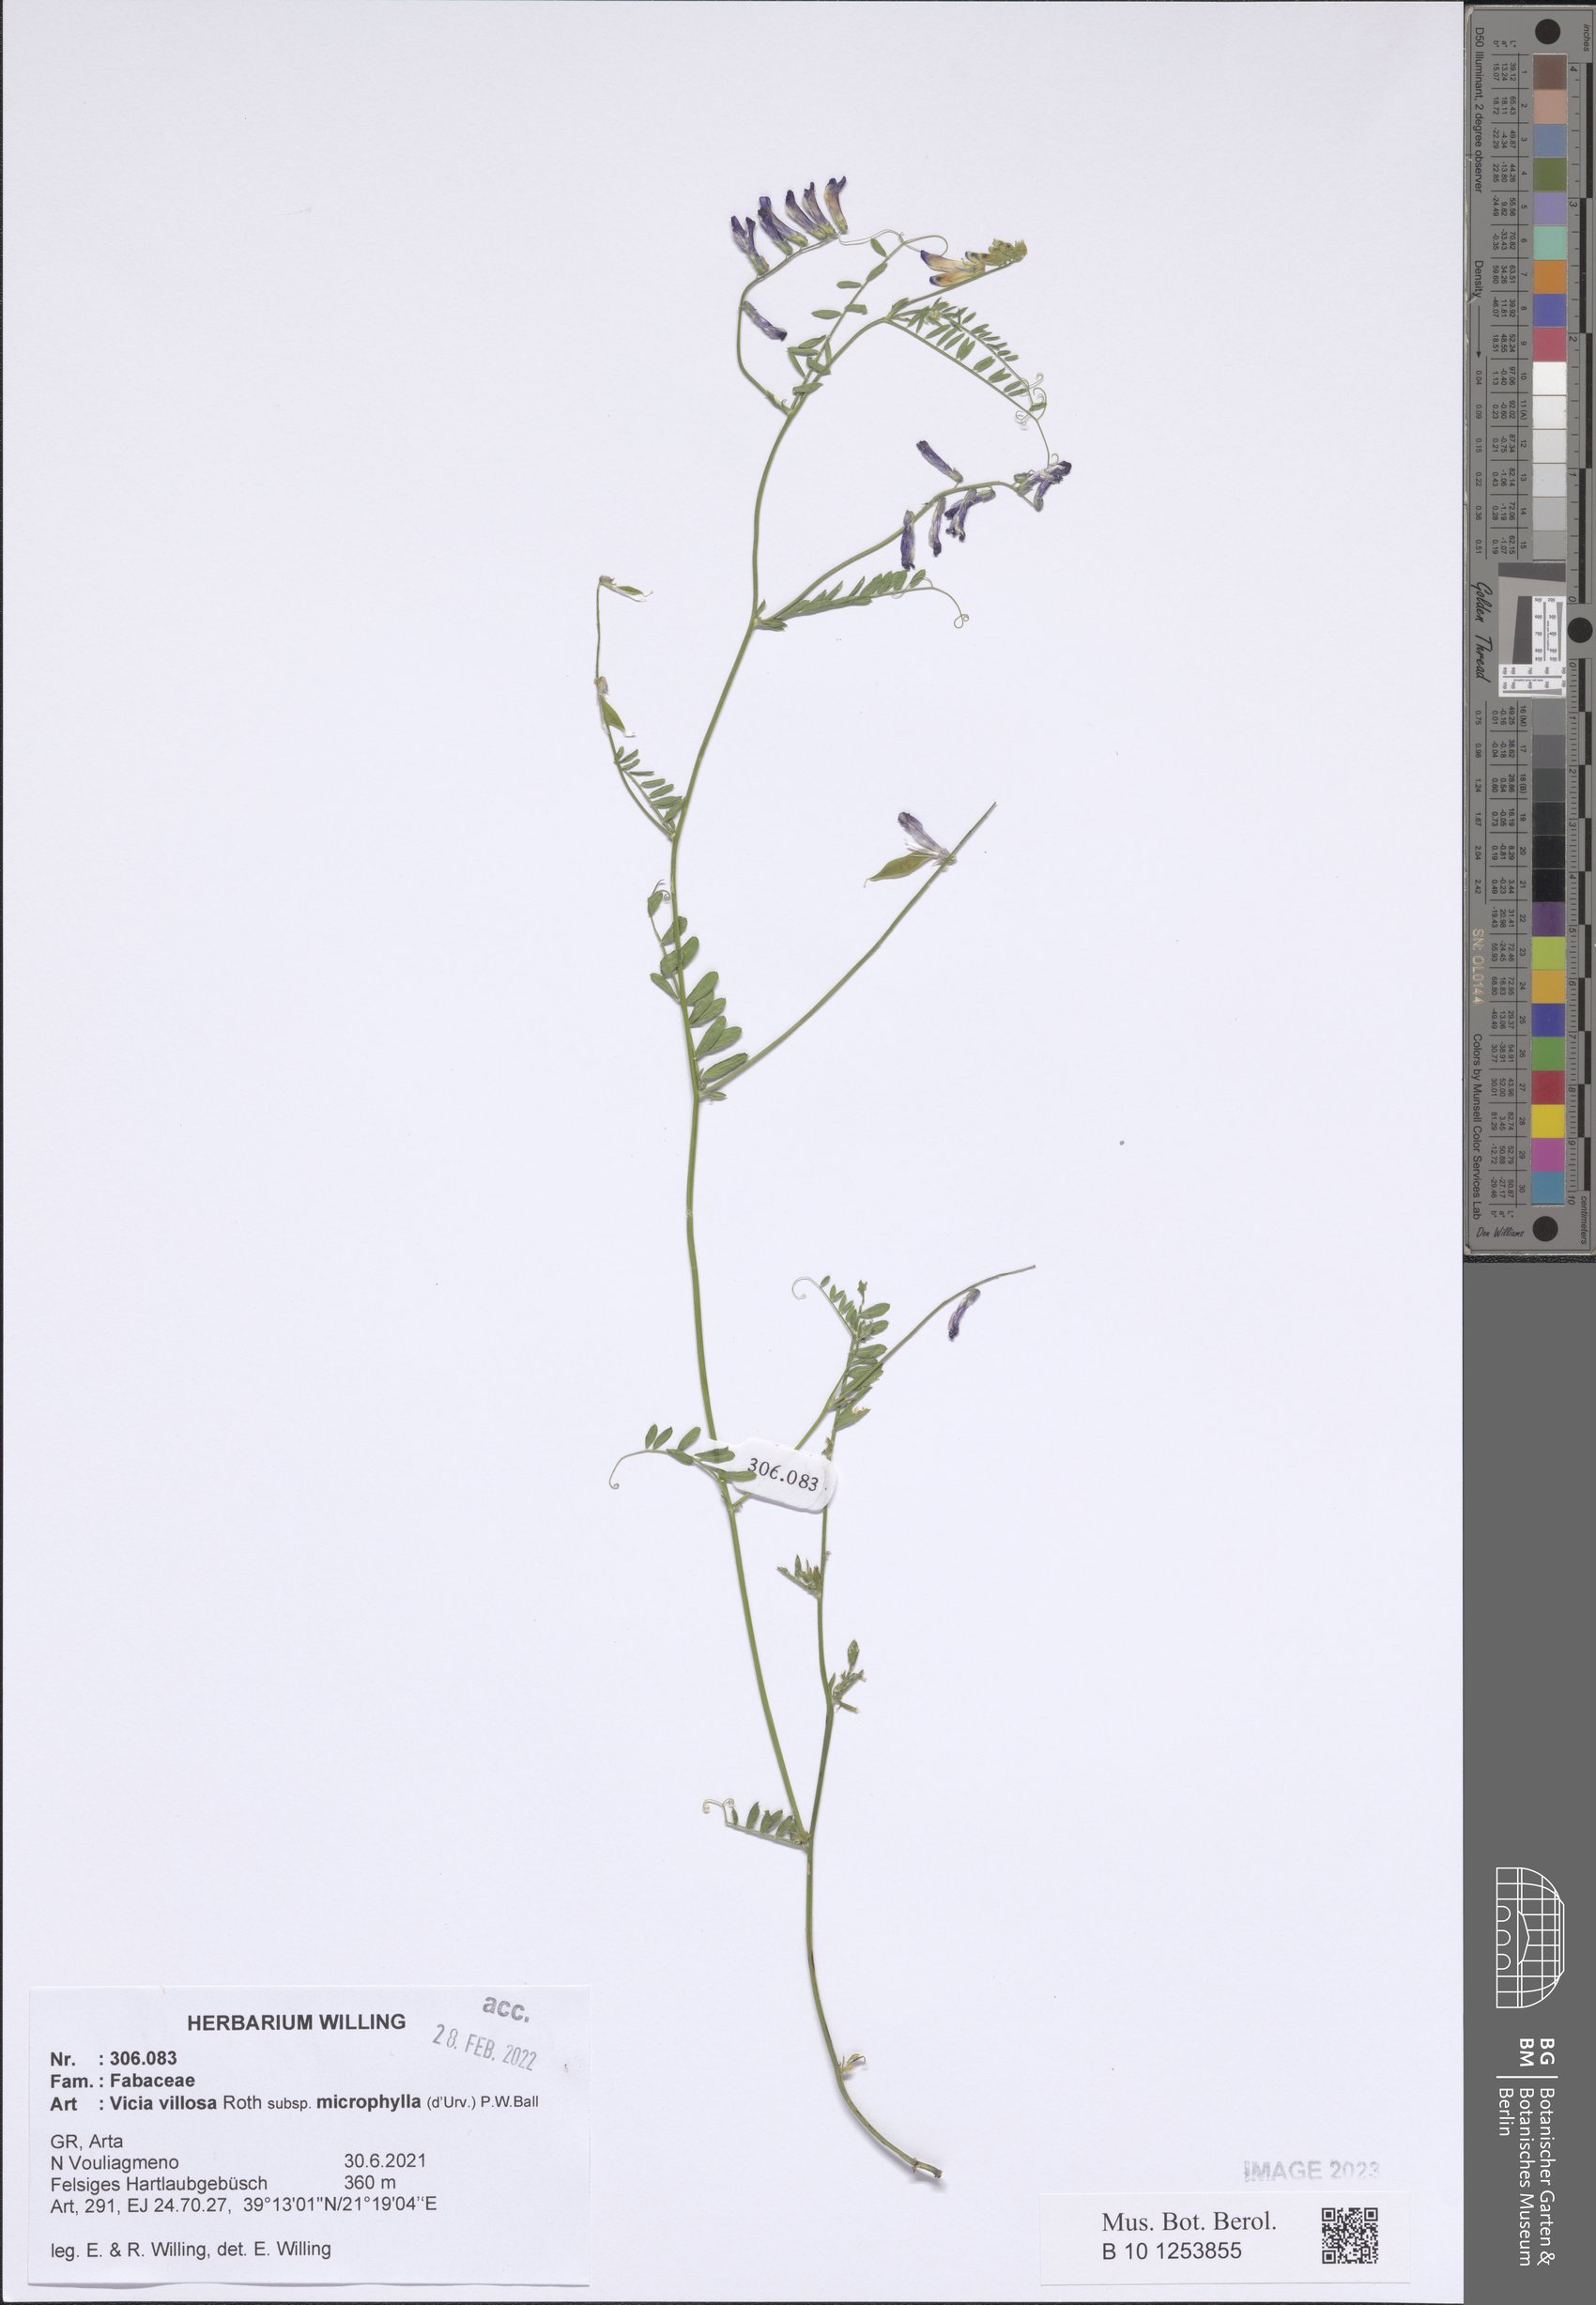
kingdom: Plantae
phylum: Tracheophyta
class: Magnoliopsida
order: Fabales
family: Fabaceae
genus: Vicia
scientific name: Vicia villosa
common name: Fodder vetch
